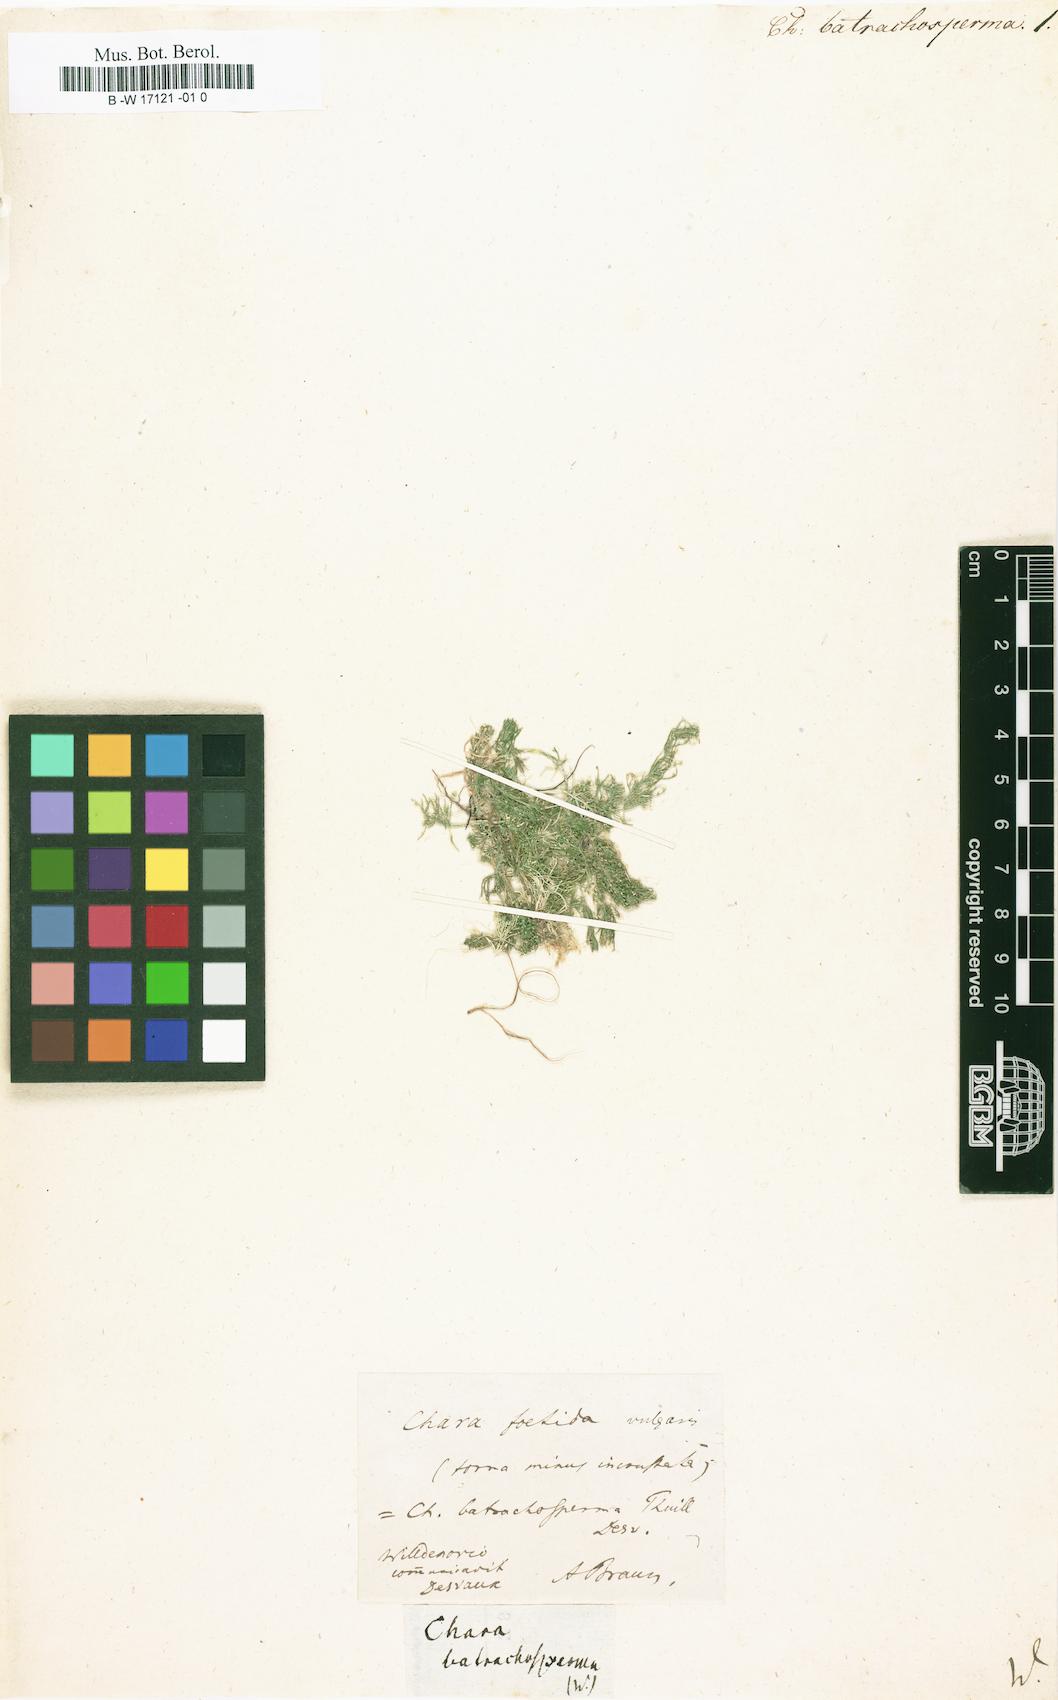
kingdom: Plantae
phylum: Charophyta
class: Charophyceae
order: Charales
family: Characeae
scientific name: Characeae
